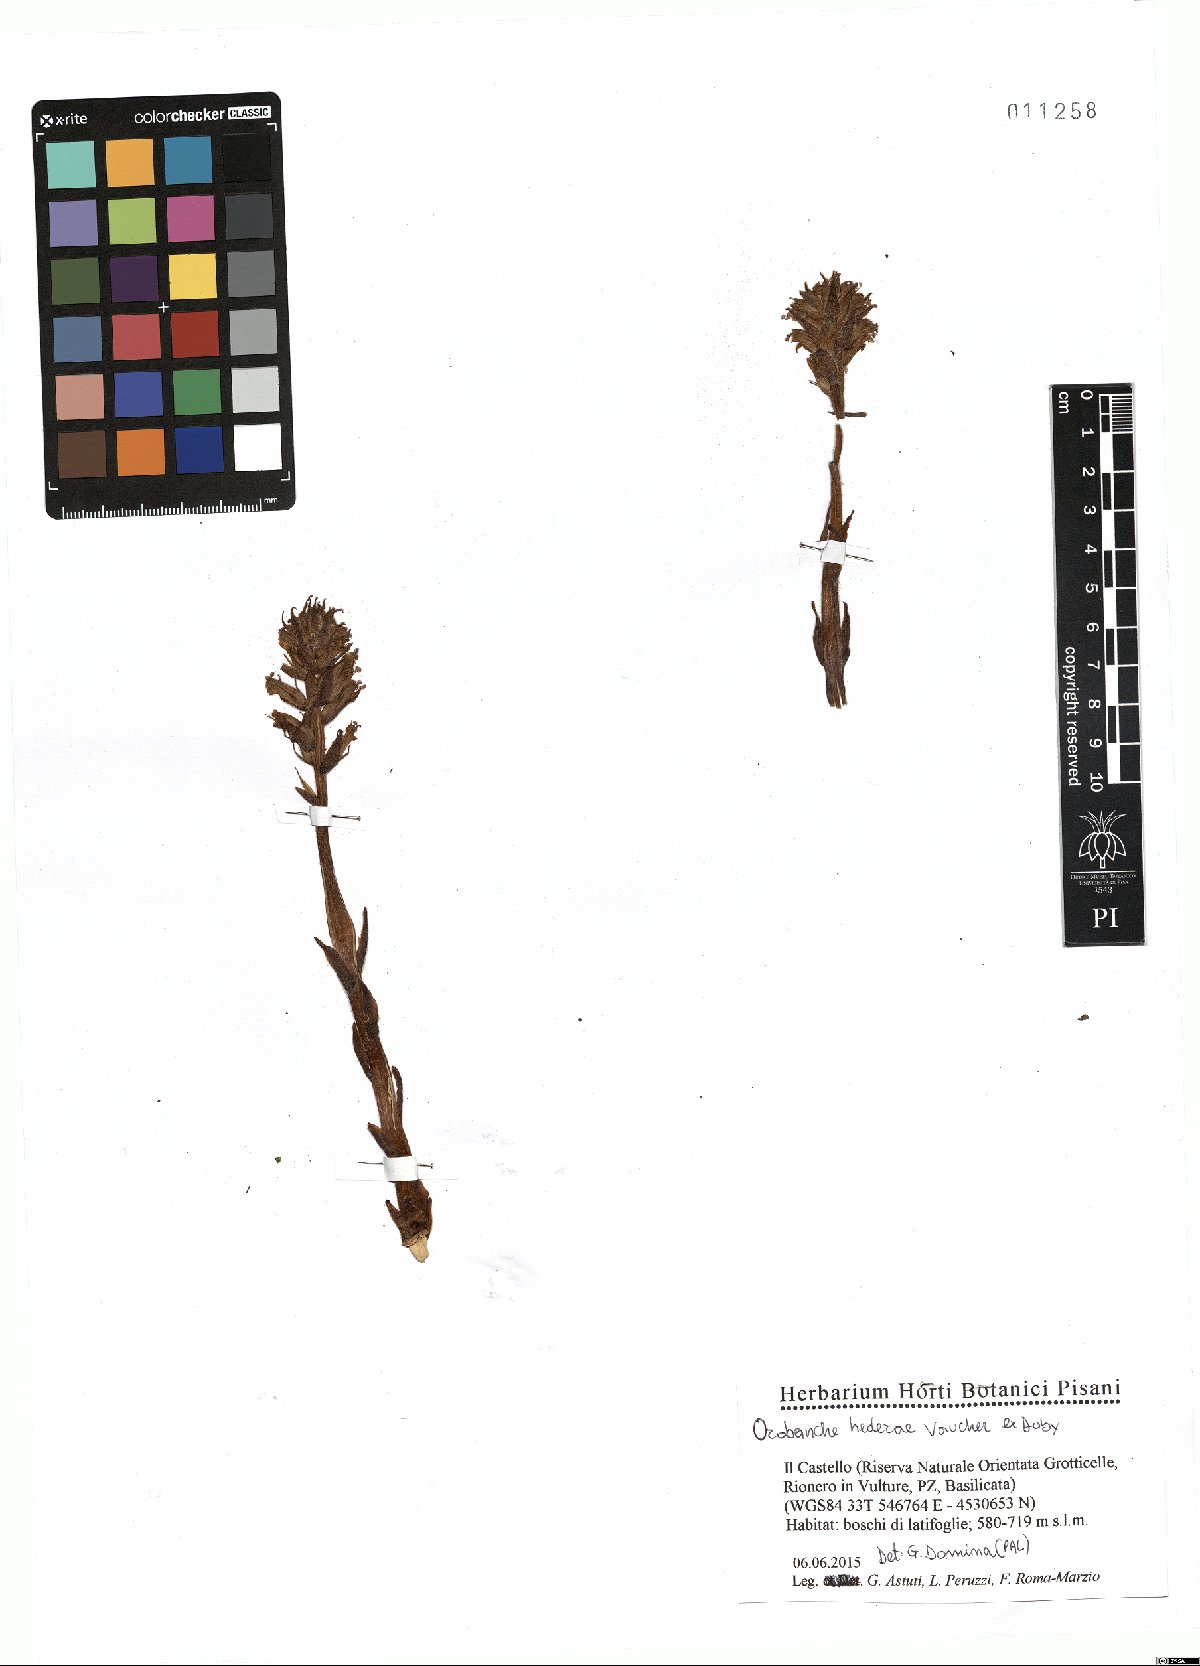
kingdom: Plantae
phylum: Tracheophyta
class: Magnoliopsida
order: Lamiales
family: Orobanchaceae
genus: Orobanche
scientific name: Orobanche hederae
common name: Ivy broomrape
